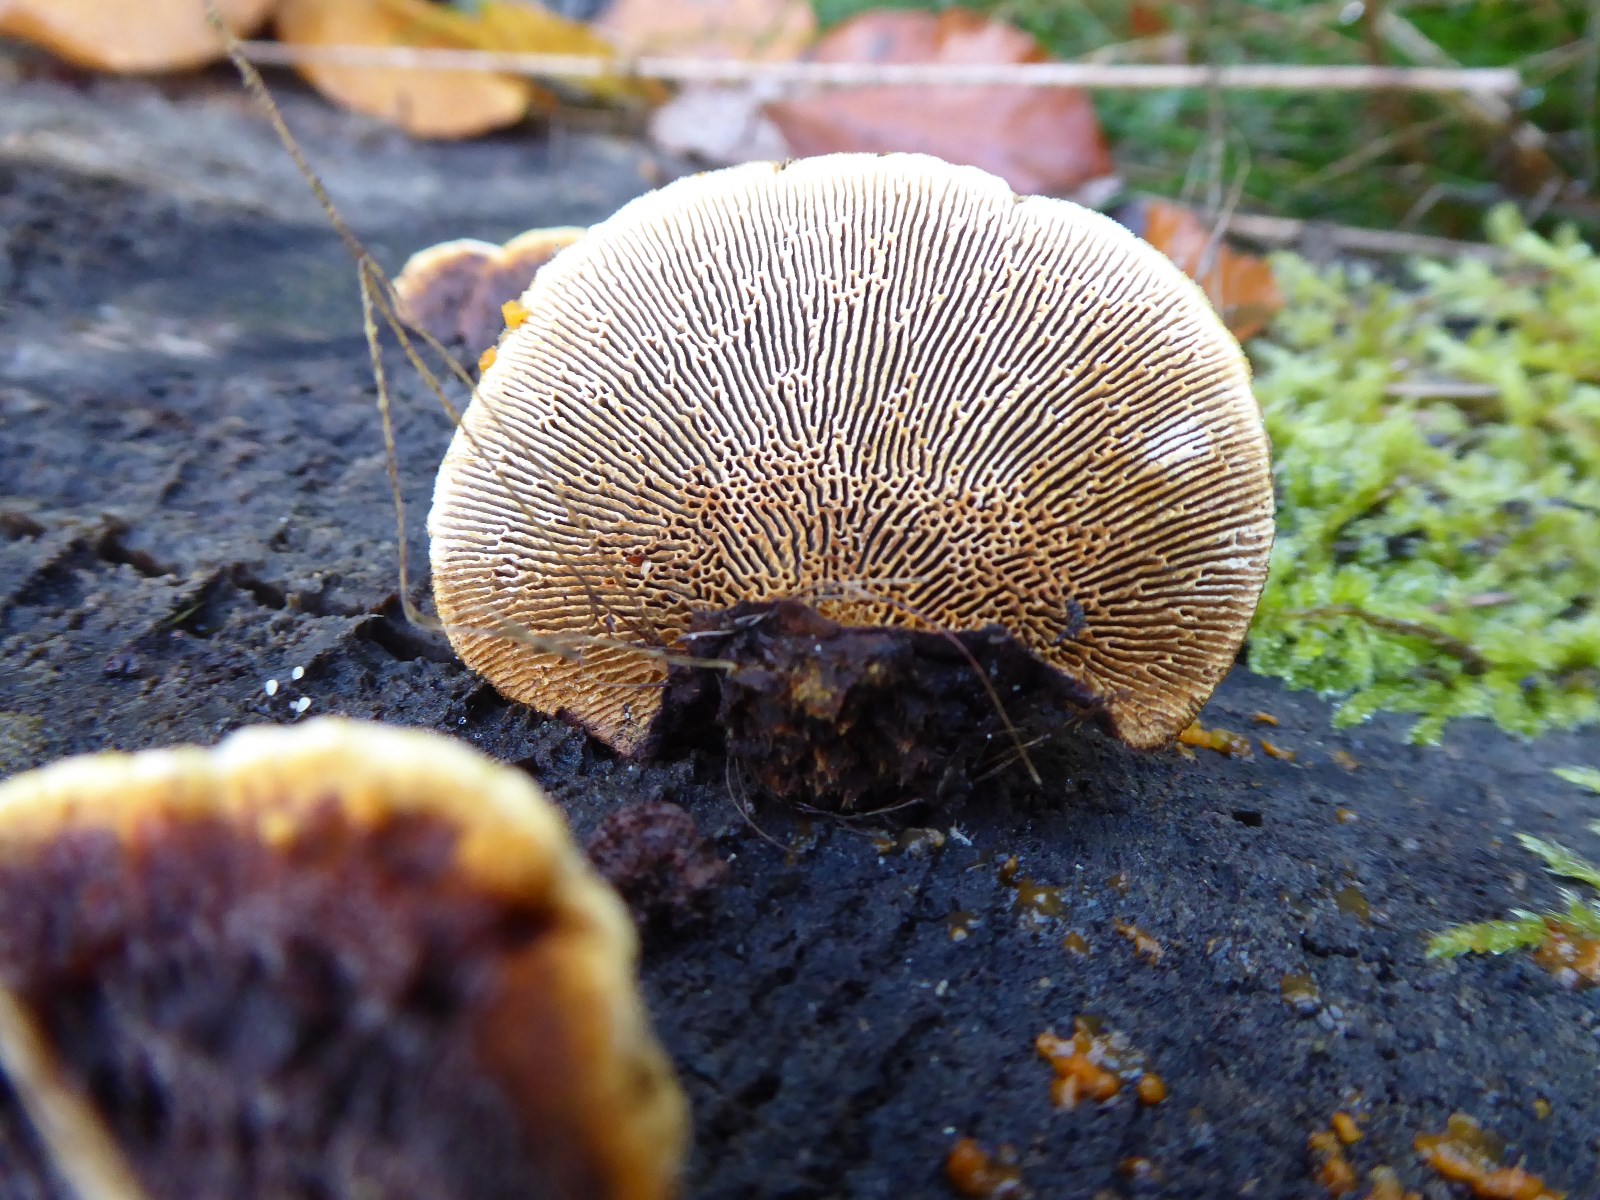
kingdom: Fungi
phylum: Basidiomycota
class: Agaricomycetes
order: Gloeophyllales
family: Gloeophyllaceae
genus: Gloeophyllum
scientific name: Gloeophyllum sepiarium
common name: fyrre-korkhat
